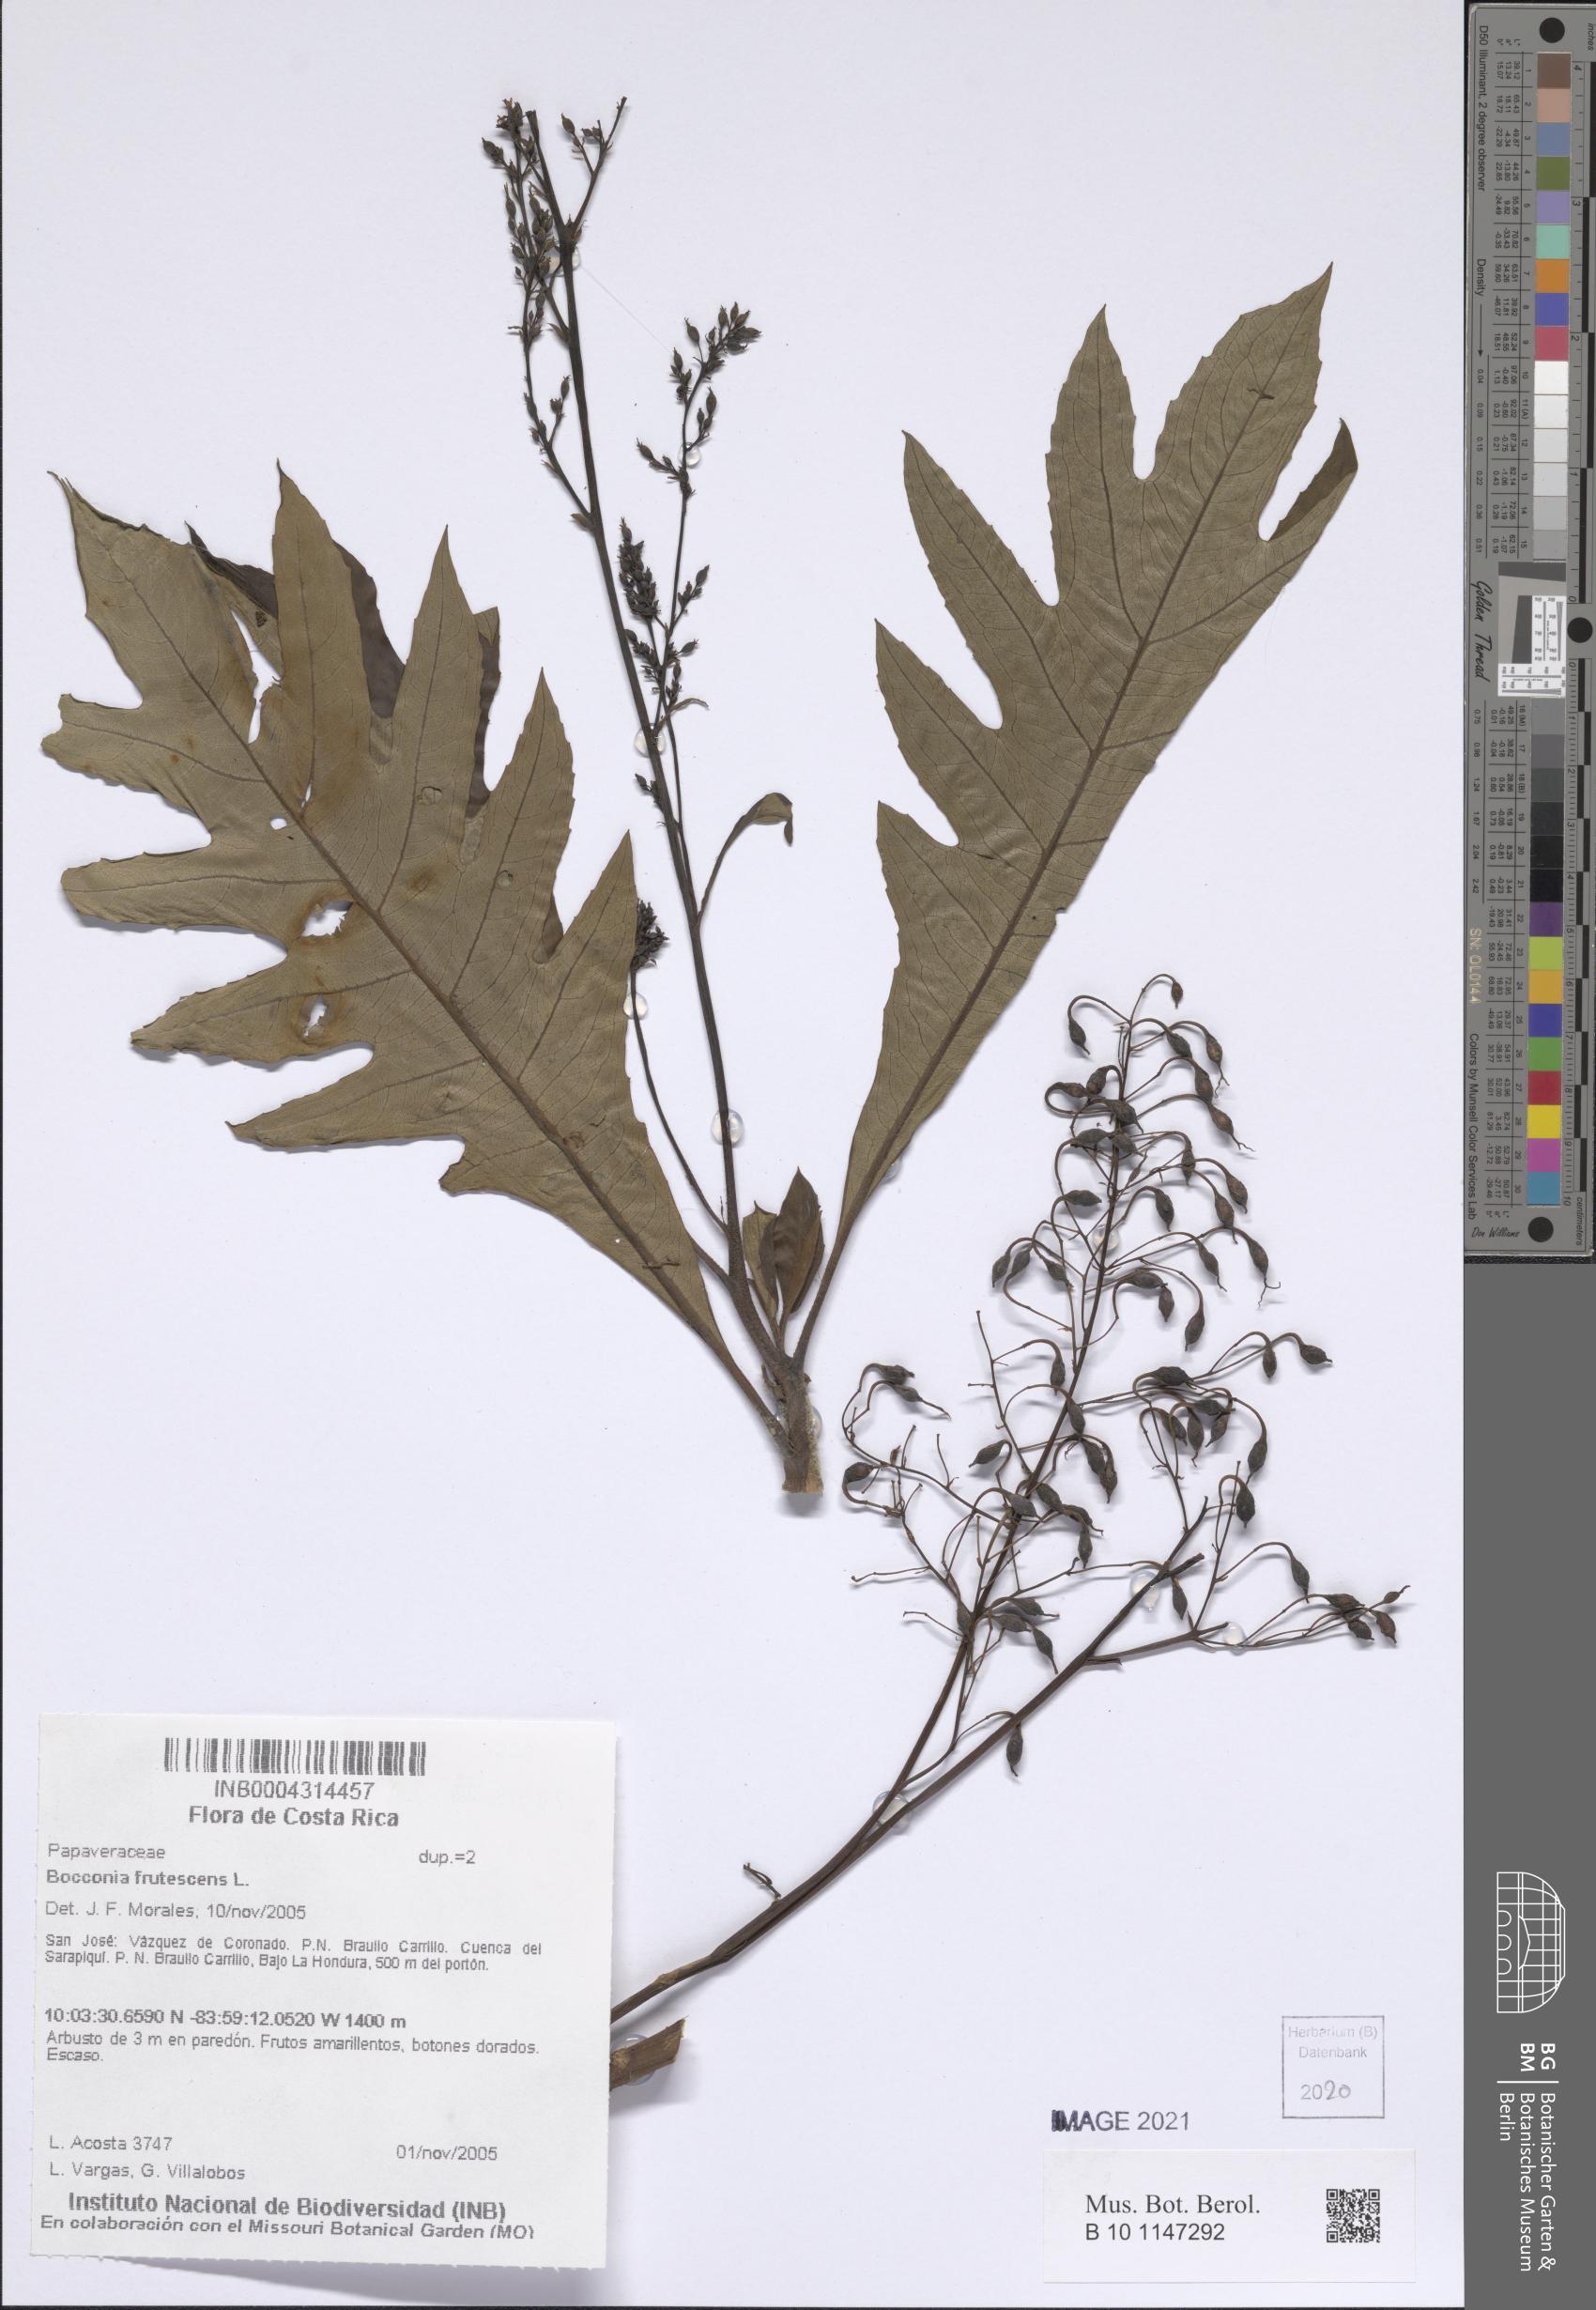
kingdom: Plantae
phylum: Tracheophyta
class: Magnoliopsida
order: Ranunculales
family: Papaveraceae
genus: Bocconia
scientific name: Bocconia frutescens
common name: Tree poppy
